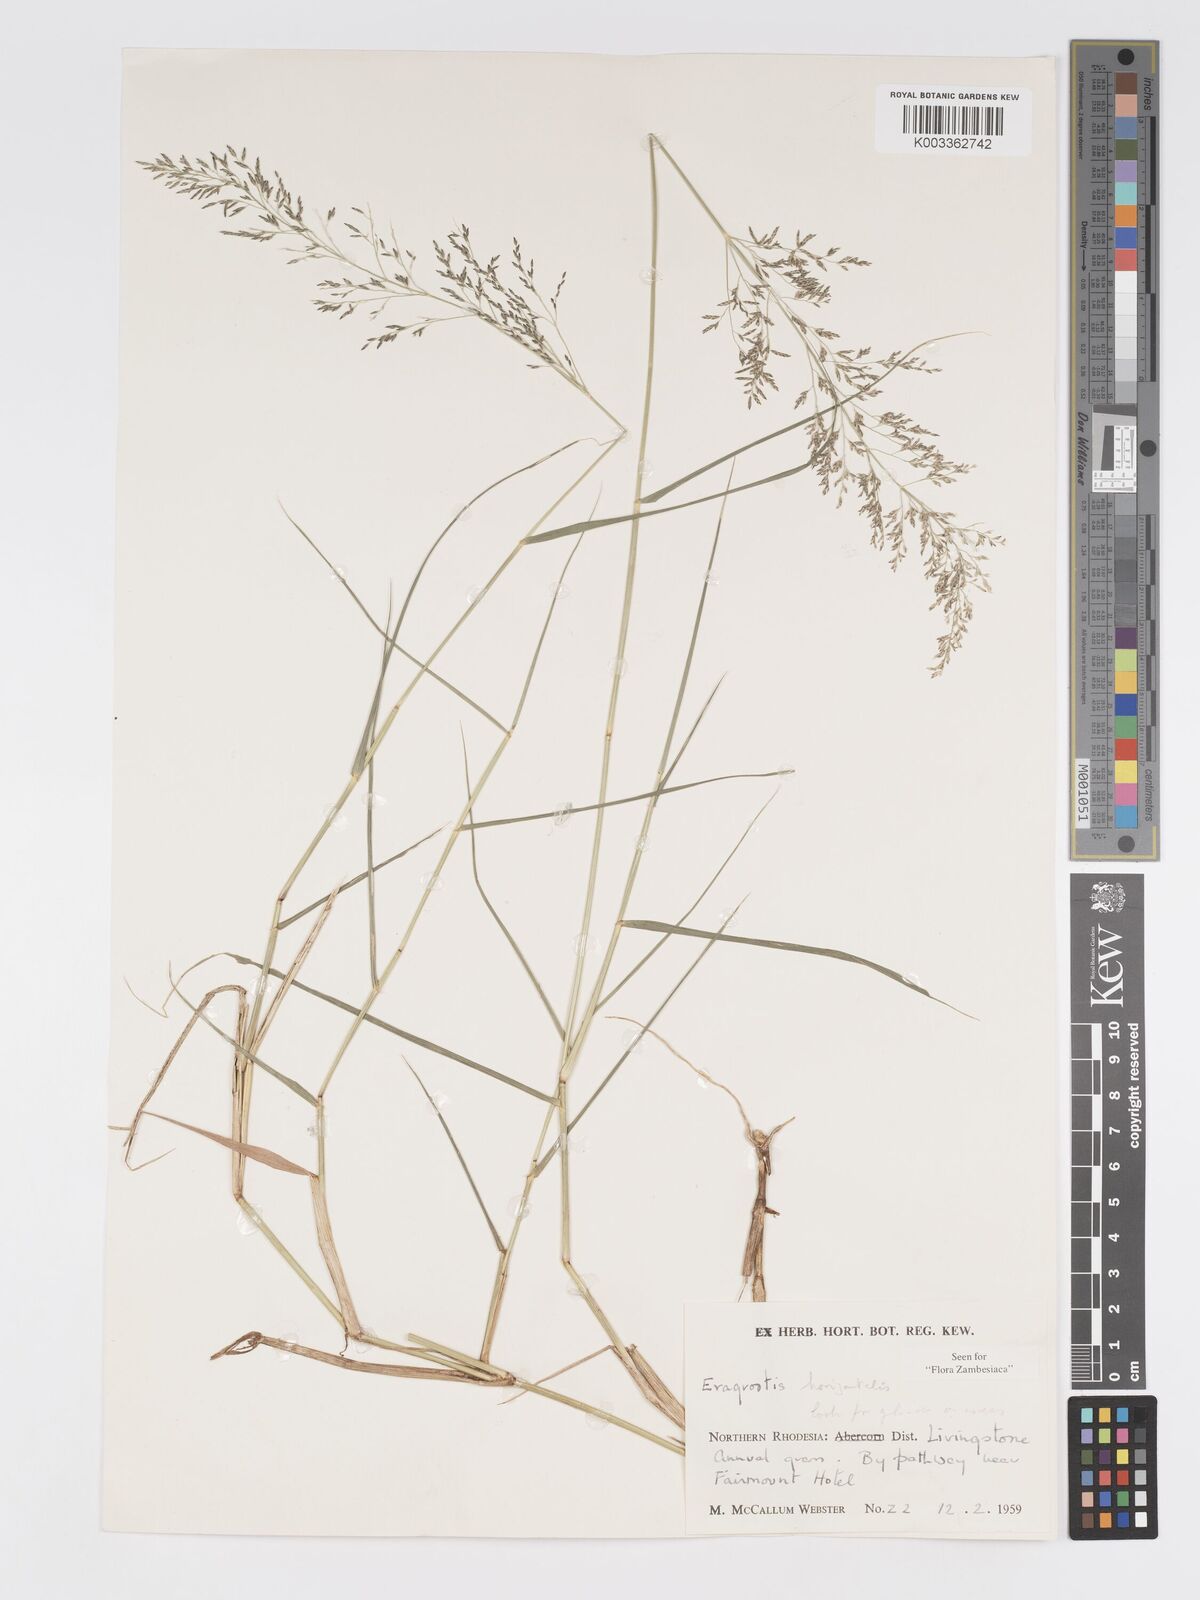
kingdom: Plantae
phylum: Tracheophyta
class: Liliopsida
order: Poales
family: Poaceae
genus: Eragrostis
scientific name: Eragrostis cylindriflora
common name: Cylinderflower lovegrass
